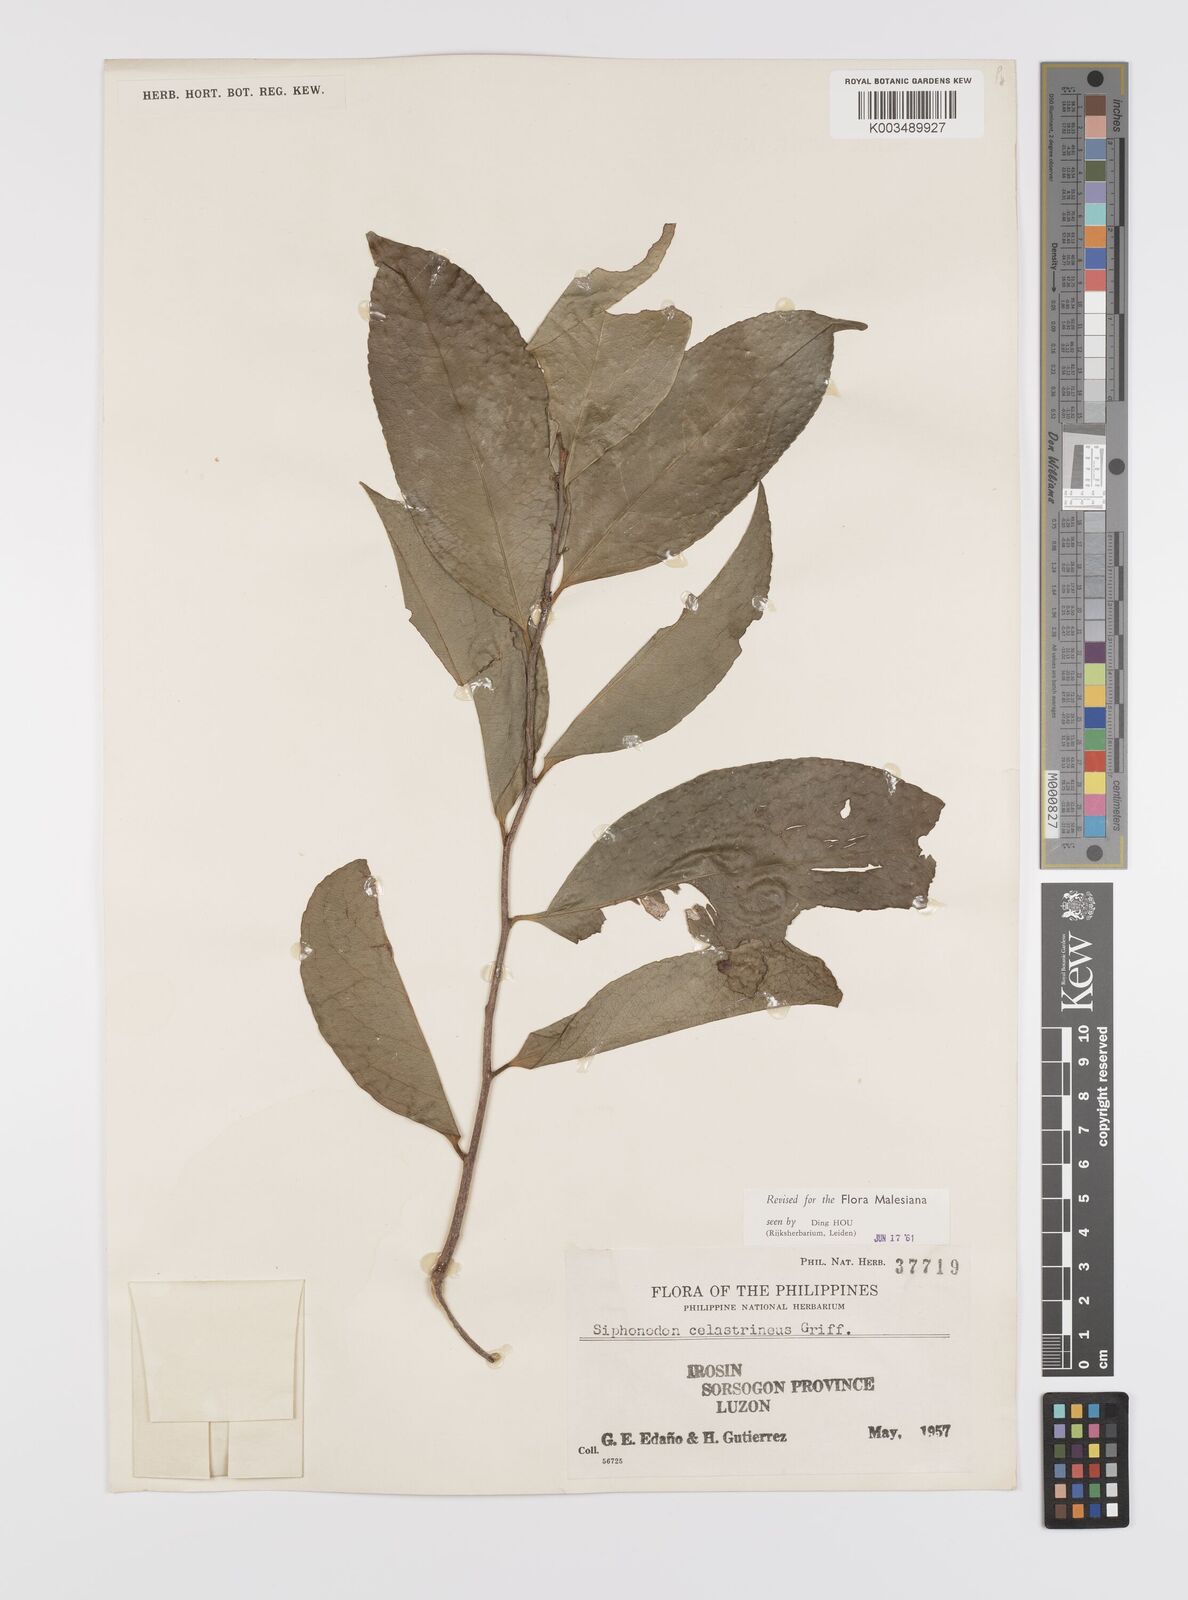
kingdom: Plantae
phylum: Tracheophyta
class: Magnoliopsida
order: Celastrales
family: Celastraceae
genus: Siphonodon
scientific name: Siphonodon celastrineus
